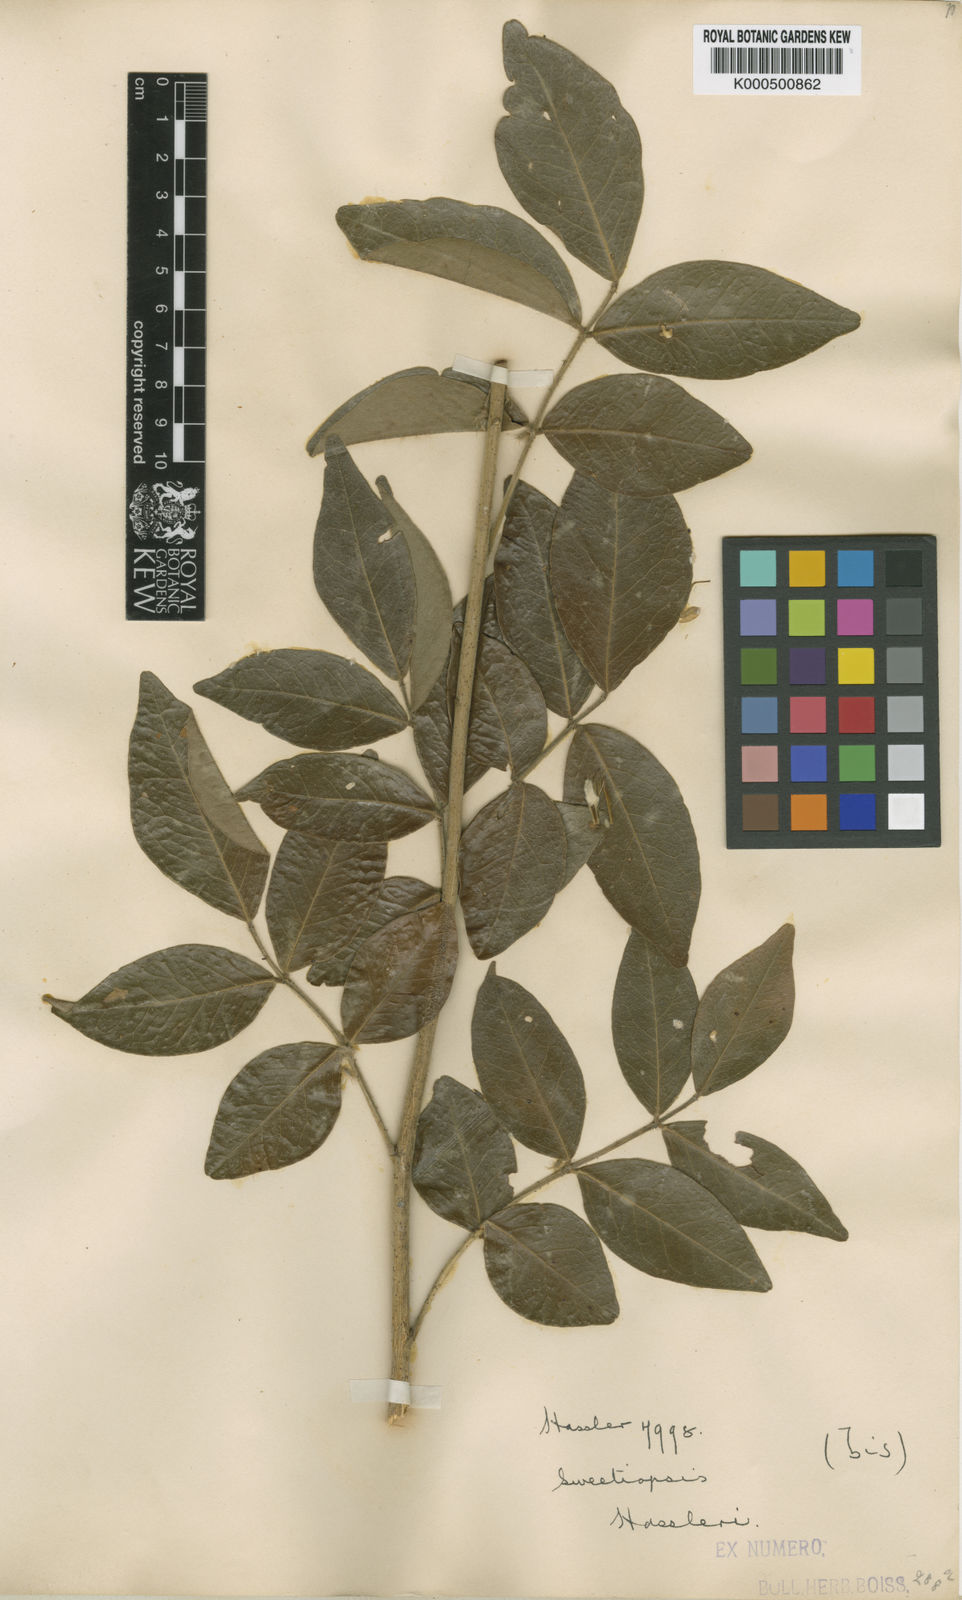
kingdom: Plantae
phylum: Tracheophyta
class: Magnoliopsida
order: Fabales
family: Fabaceae
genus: Riedeliella
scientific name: Riedeliella graciliflora
